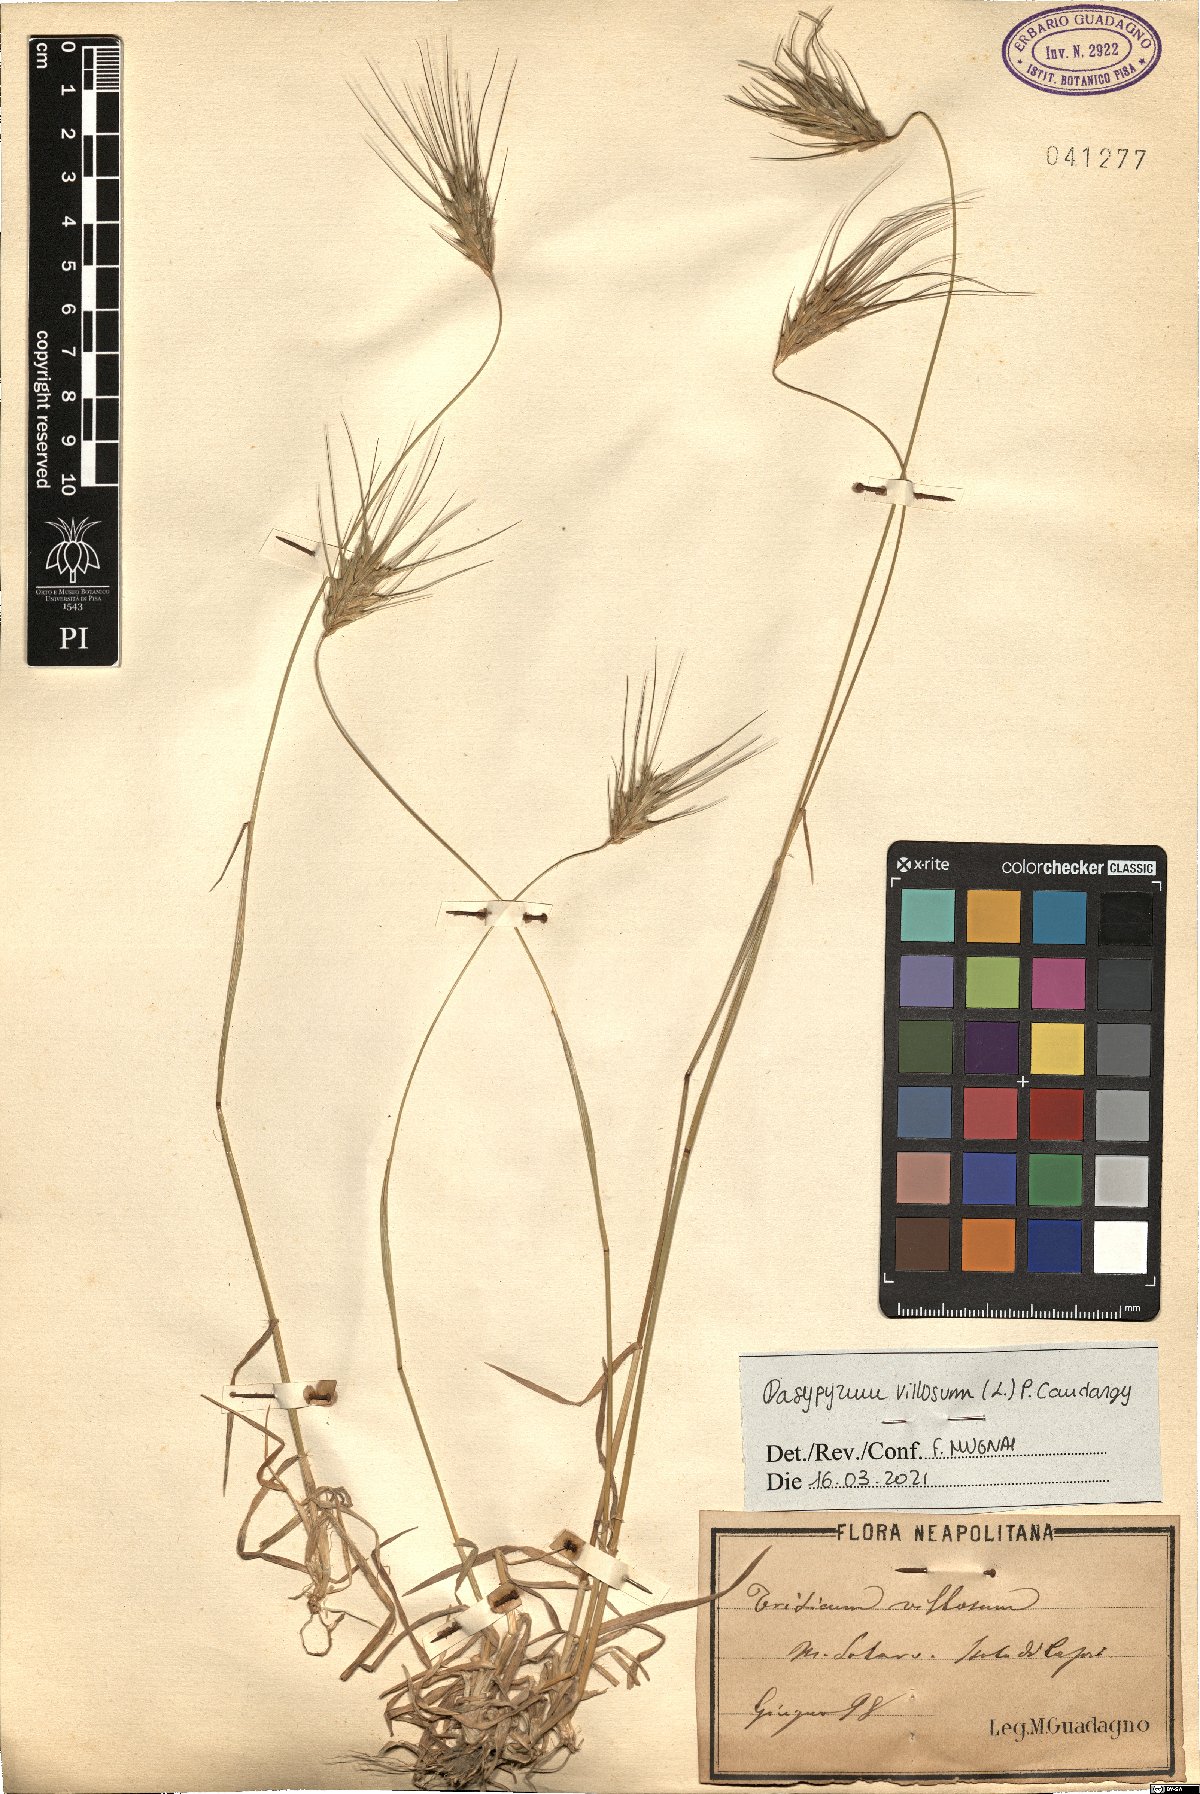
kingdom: Plantae
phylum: Tracheophyta
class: Liliopsida
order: Poales
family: Poaceae
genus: Dasypyrum
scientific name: Dasypyrum villosum
